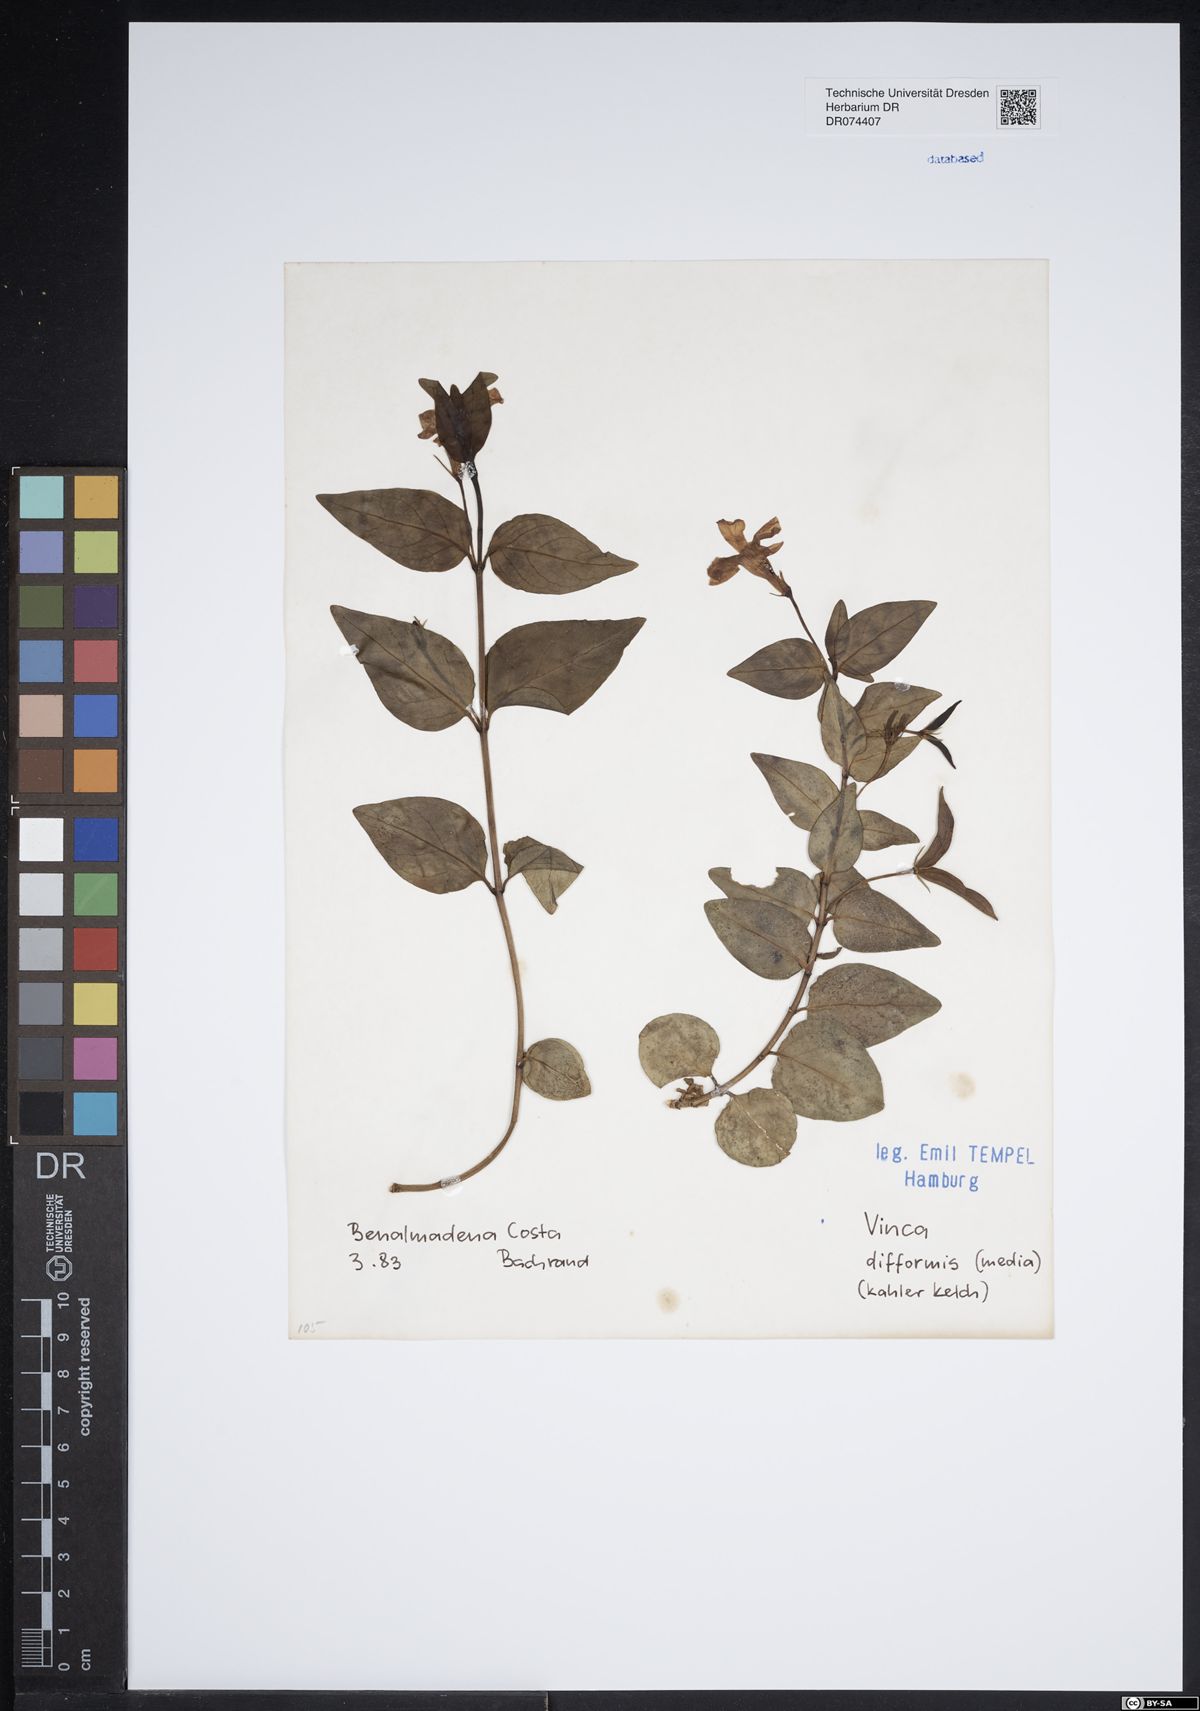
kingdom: Plantae
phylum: Tracheophyta
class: Magnoliopsida
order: Gentianales
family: Apocynaceae
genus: Vinca
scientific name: Vinca difformis
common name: Intermediate periwinkle
